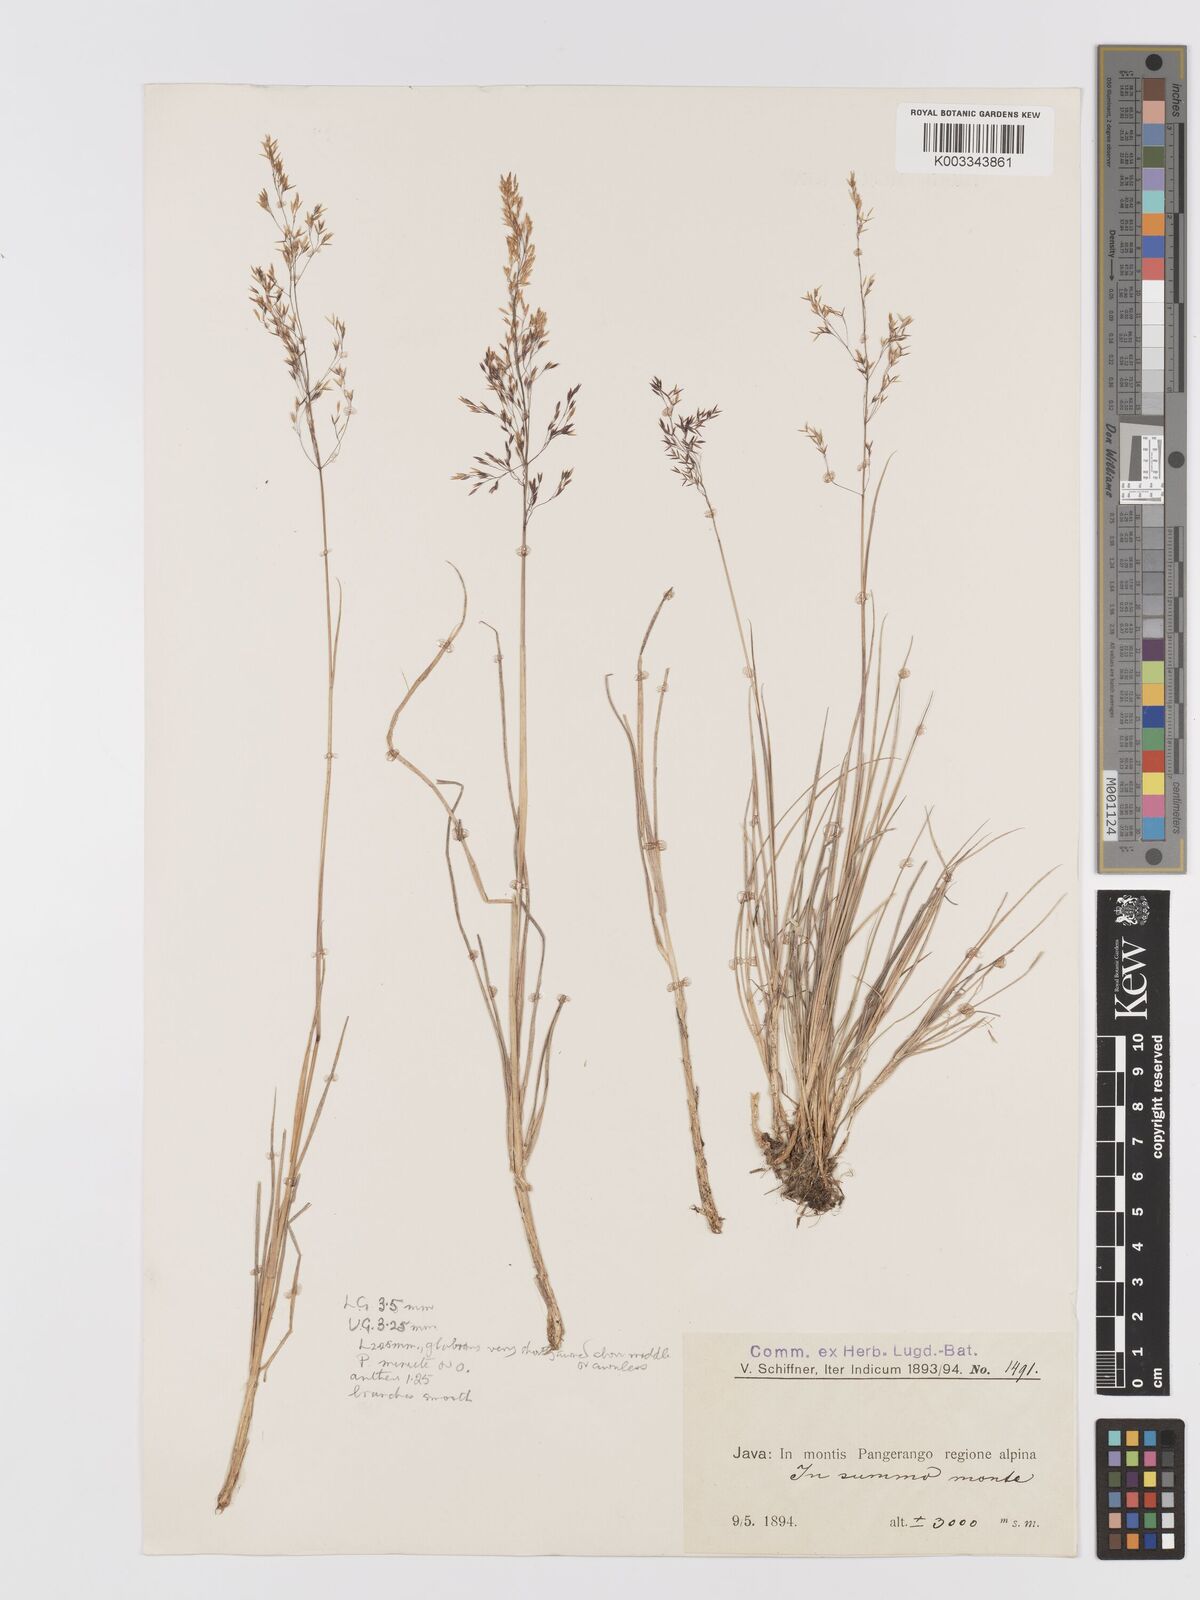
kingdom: Plantae
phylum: Tracheophyta
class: Liliopsida
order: Poales
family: Poaceae
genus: Agrostis
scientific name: Agrostis infirma
